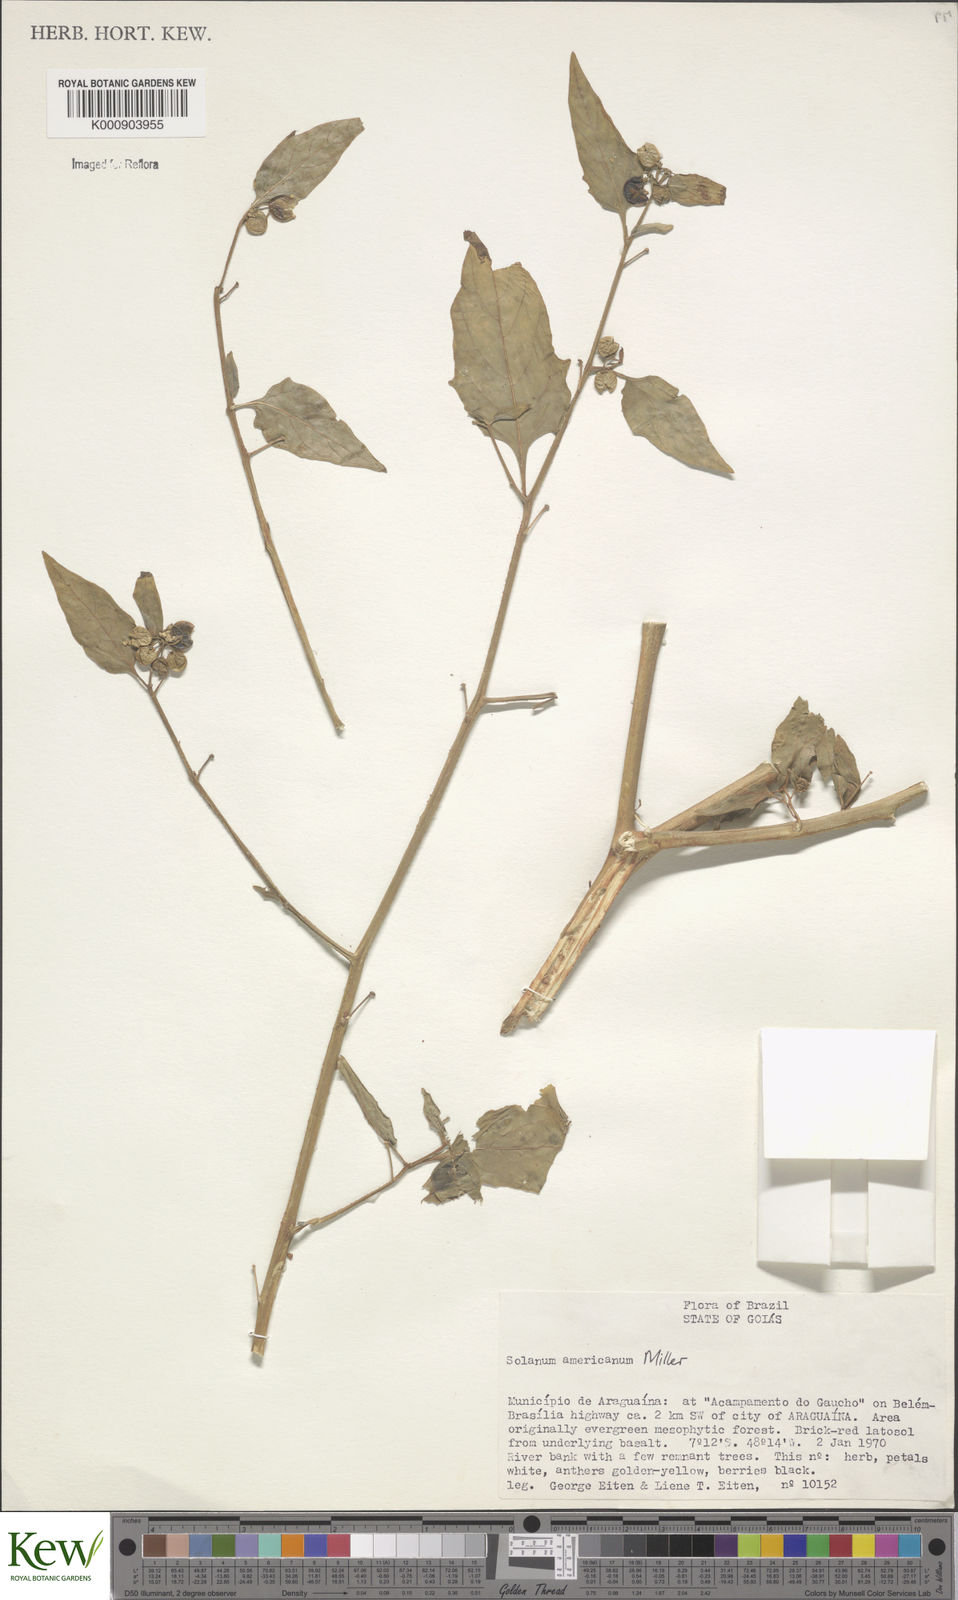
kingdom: Plantae
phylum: Tracheophyta
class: Magnoliopsida
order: Solanales
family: Solanaceae
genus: Solanum
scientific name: Solanum americanum
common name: American black nightshade
